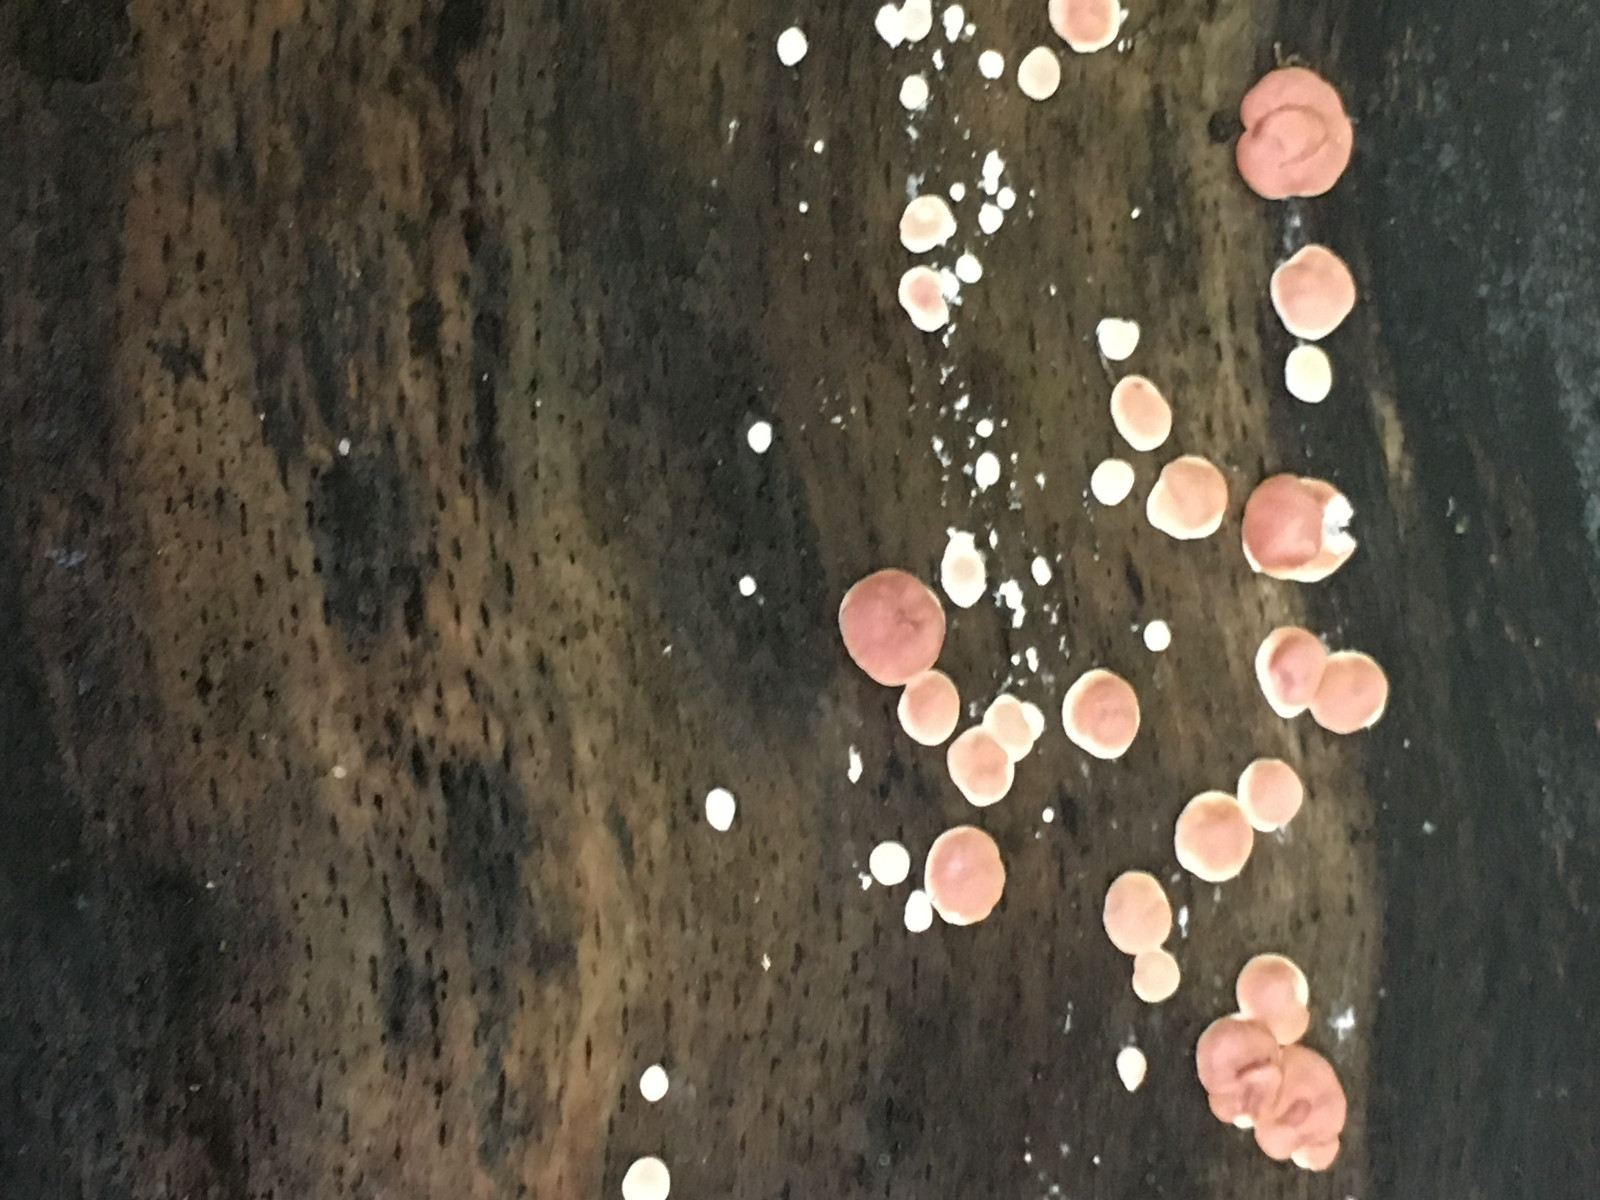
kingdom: Fungi
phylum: Ascomycota
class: Sordariomycetes
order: Hypocreales
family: Hypocreaceae
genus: Trichoderma
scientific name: Trichoderma europaeum
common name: rosabrun kødkerne
